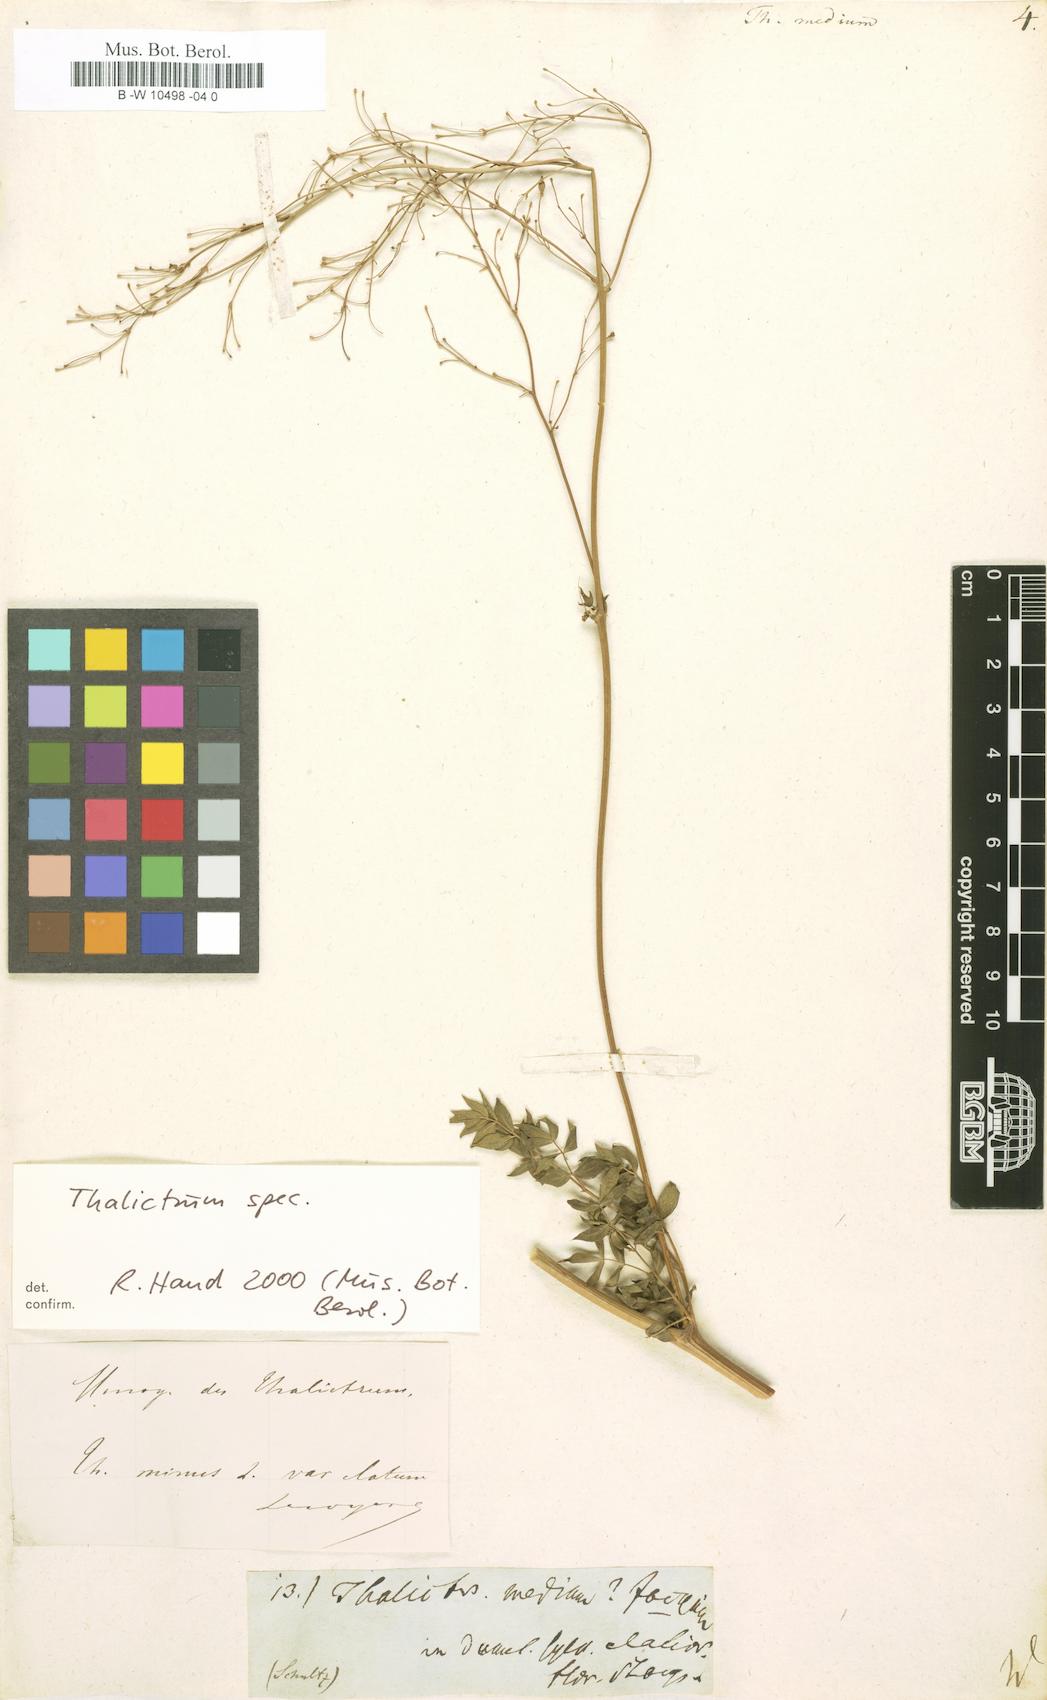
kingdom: Plantae
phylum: Tracheophyta
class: Magnoliopsida
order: Ranunculales
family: Ranunculaceae
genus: Thalictrum
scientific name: Thalictrum medium
